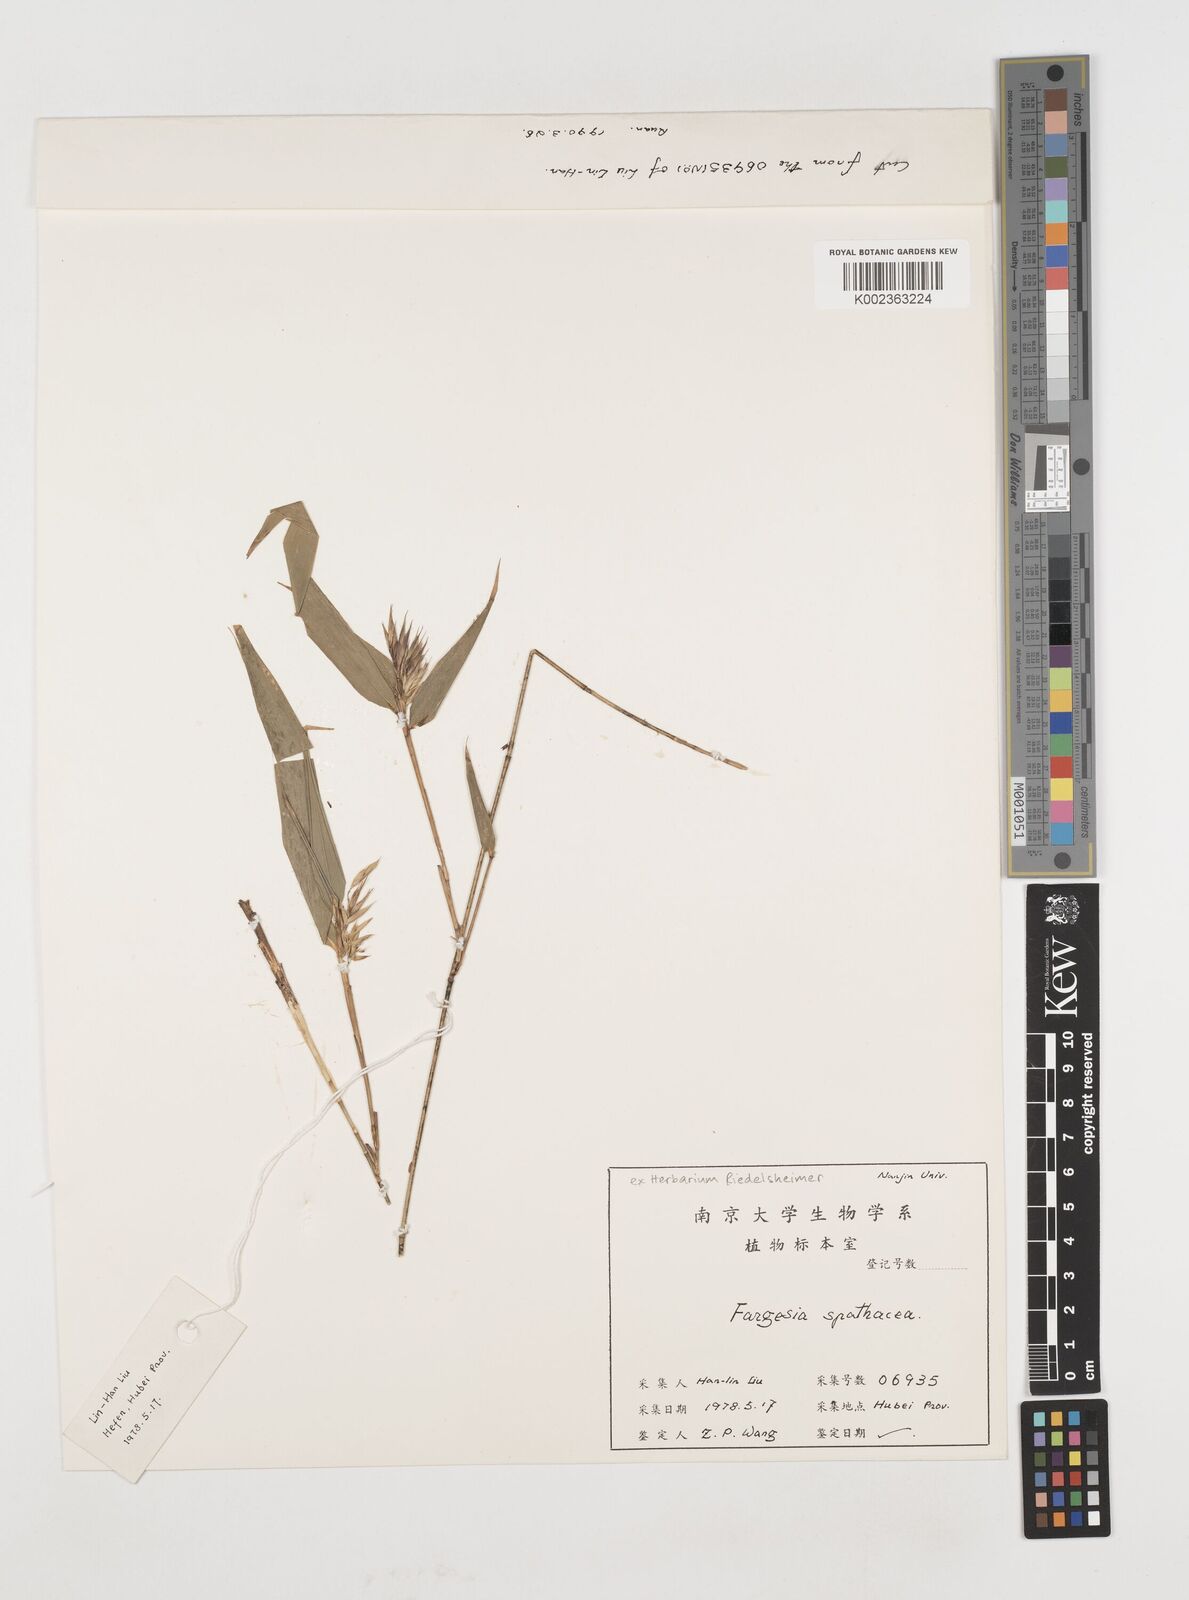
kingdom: Plantae
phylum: Tracheophyta
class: Liliopsida
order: Poales
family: Poaceae
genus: Fargesia
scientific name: Fargesia spathacea
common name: Chinese fountain-bamboo
